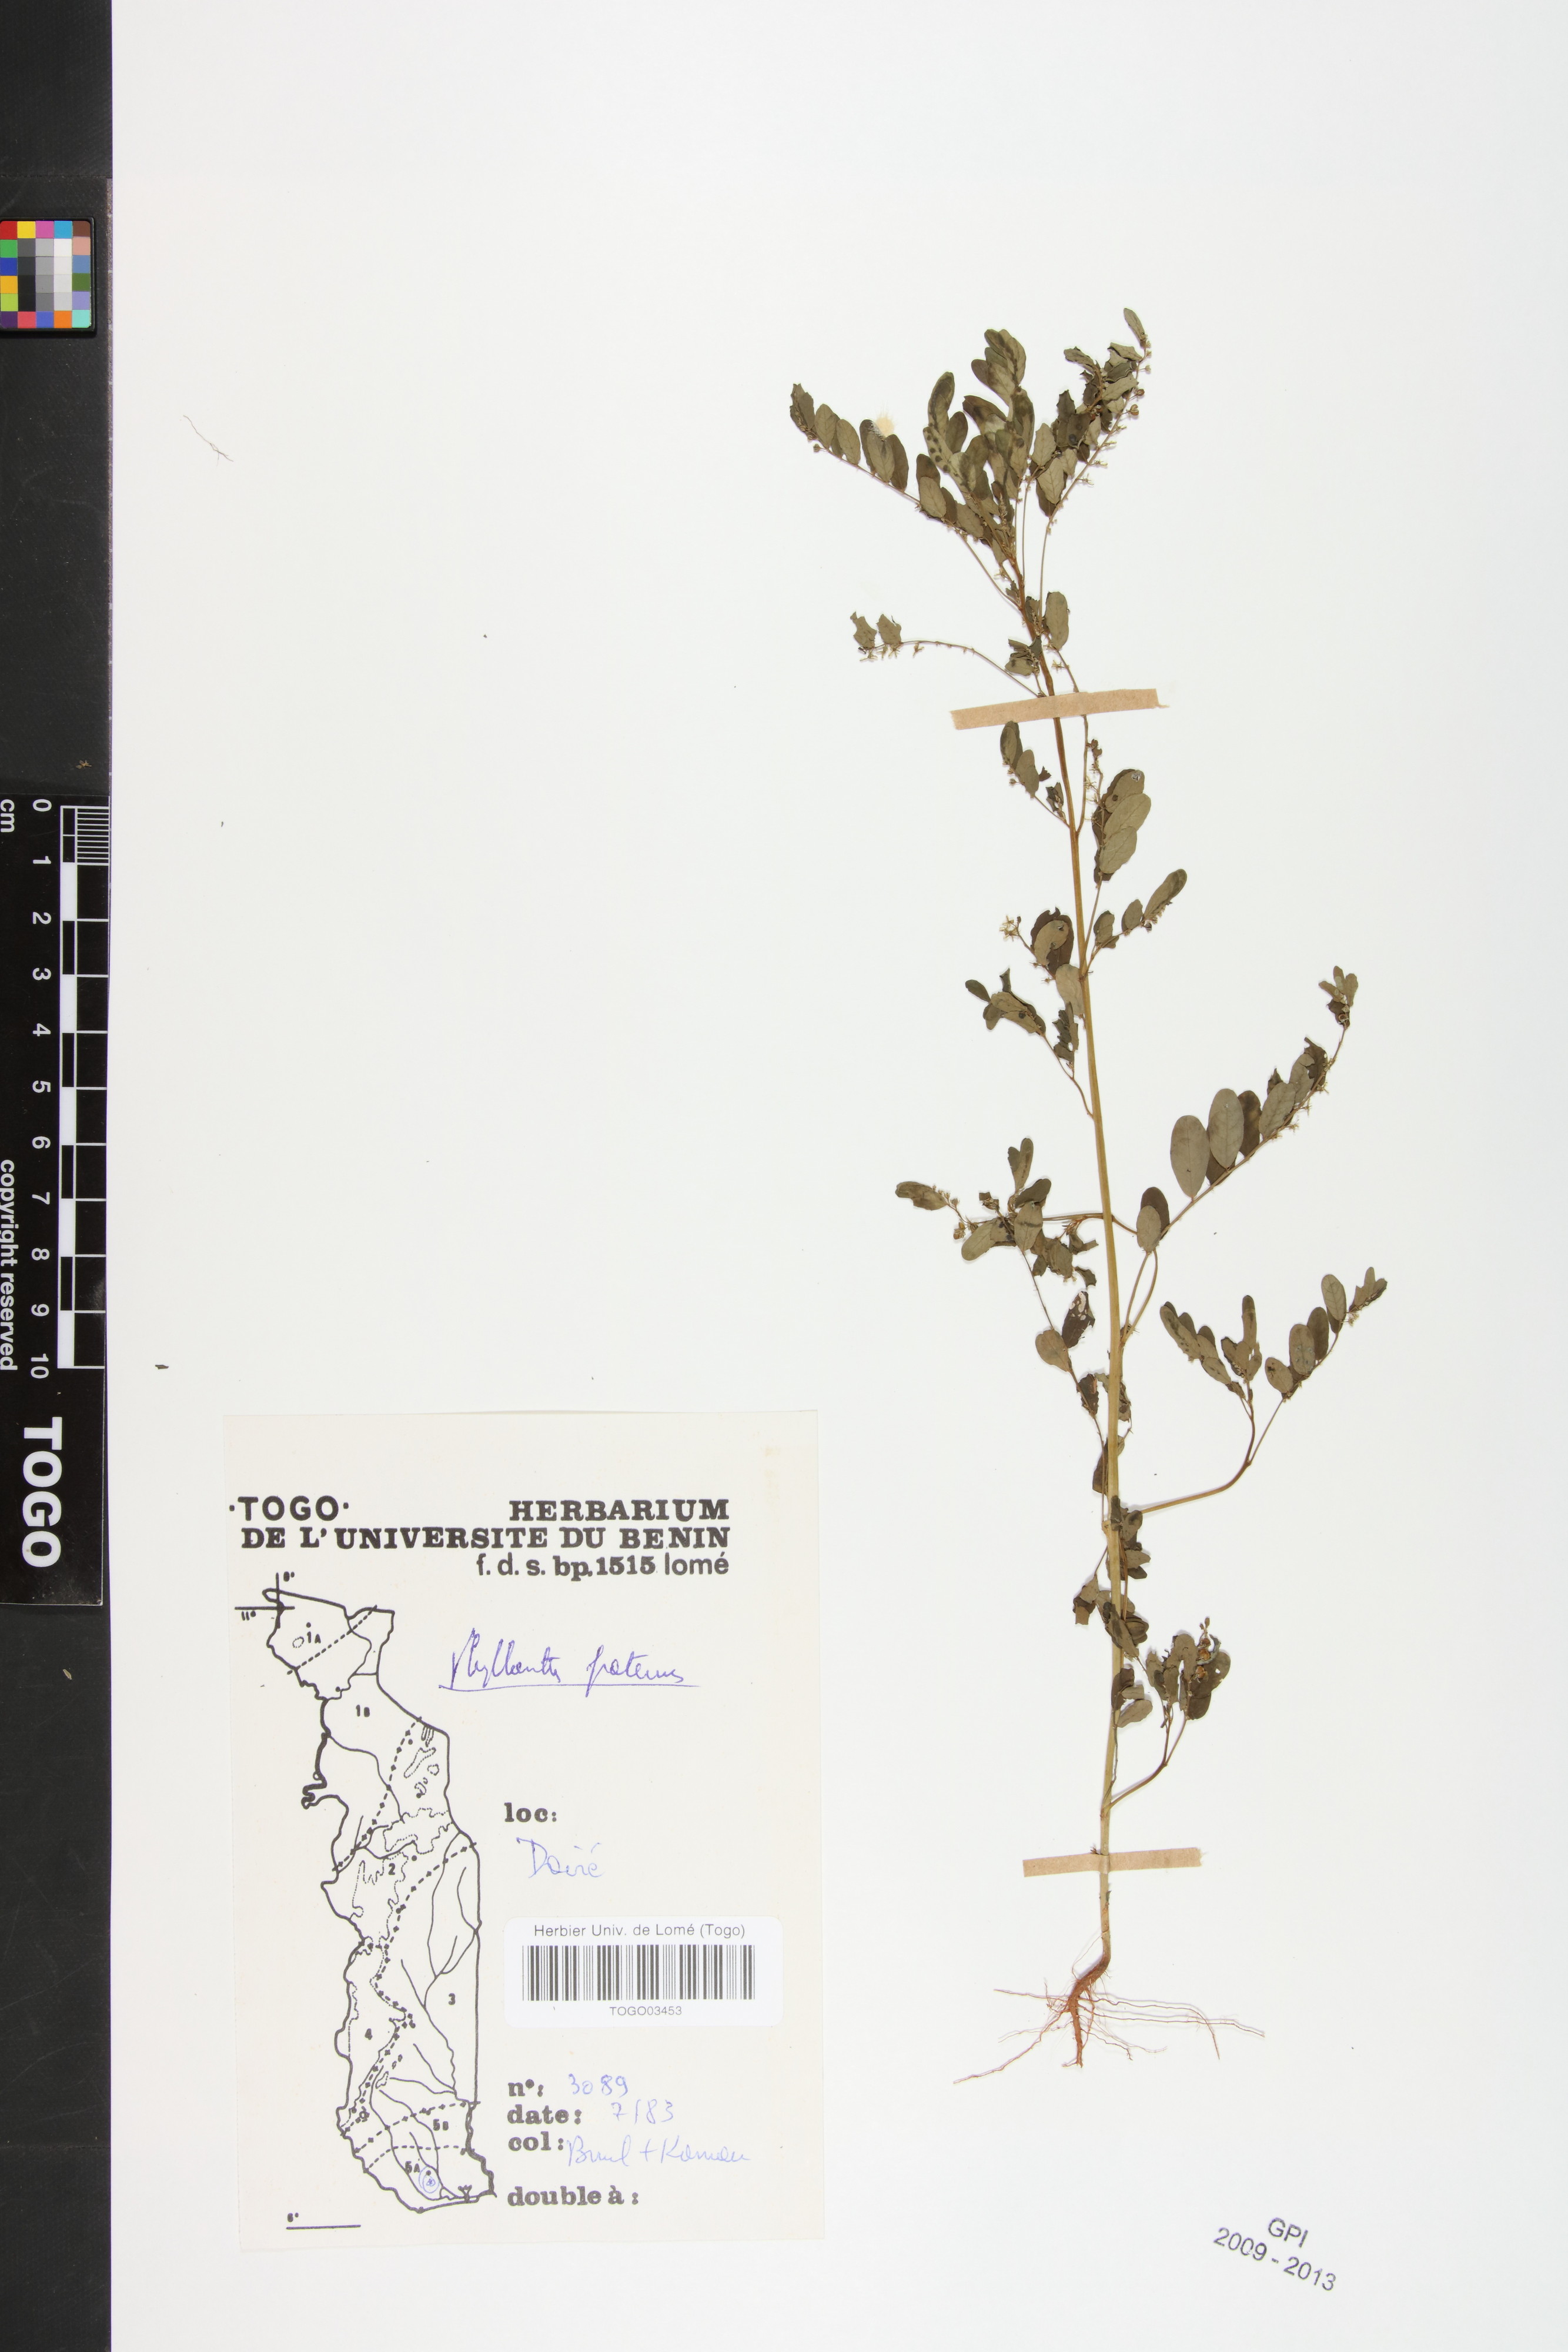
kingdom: Plantae
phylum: Tracheophyta
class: Magnoliopsida
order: Malpighiales
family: Phyllanthaceae
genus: Phyllanthus
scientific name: Phyllanthus fraternus
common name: Gulf leaf-flower
